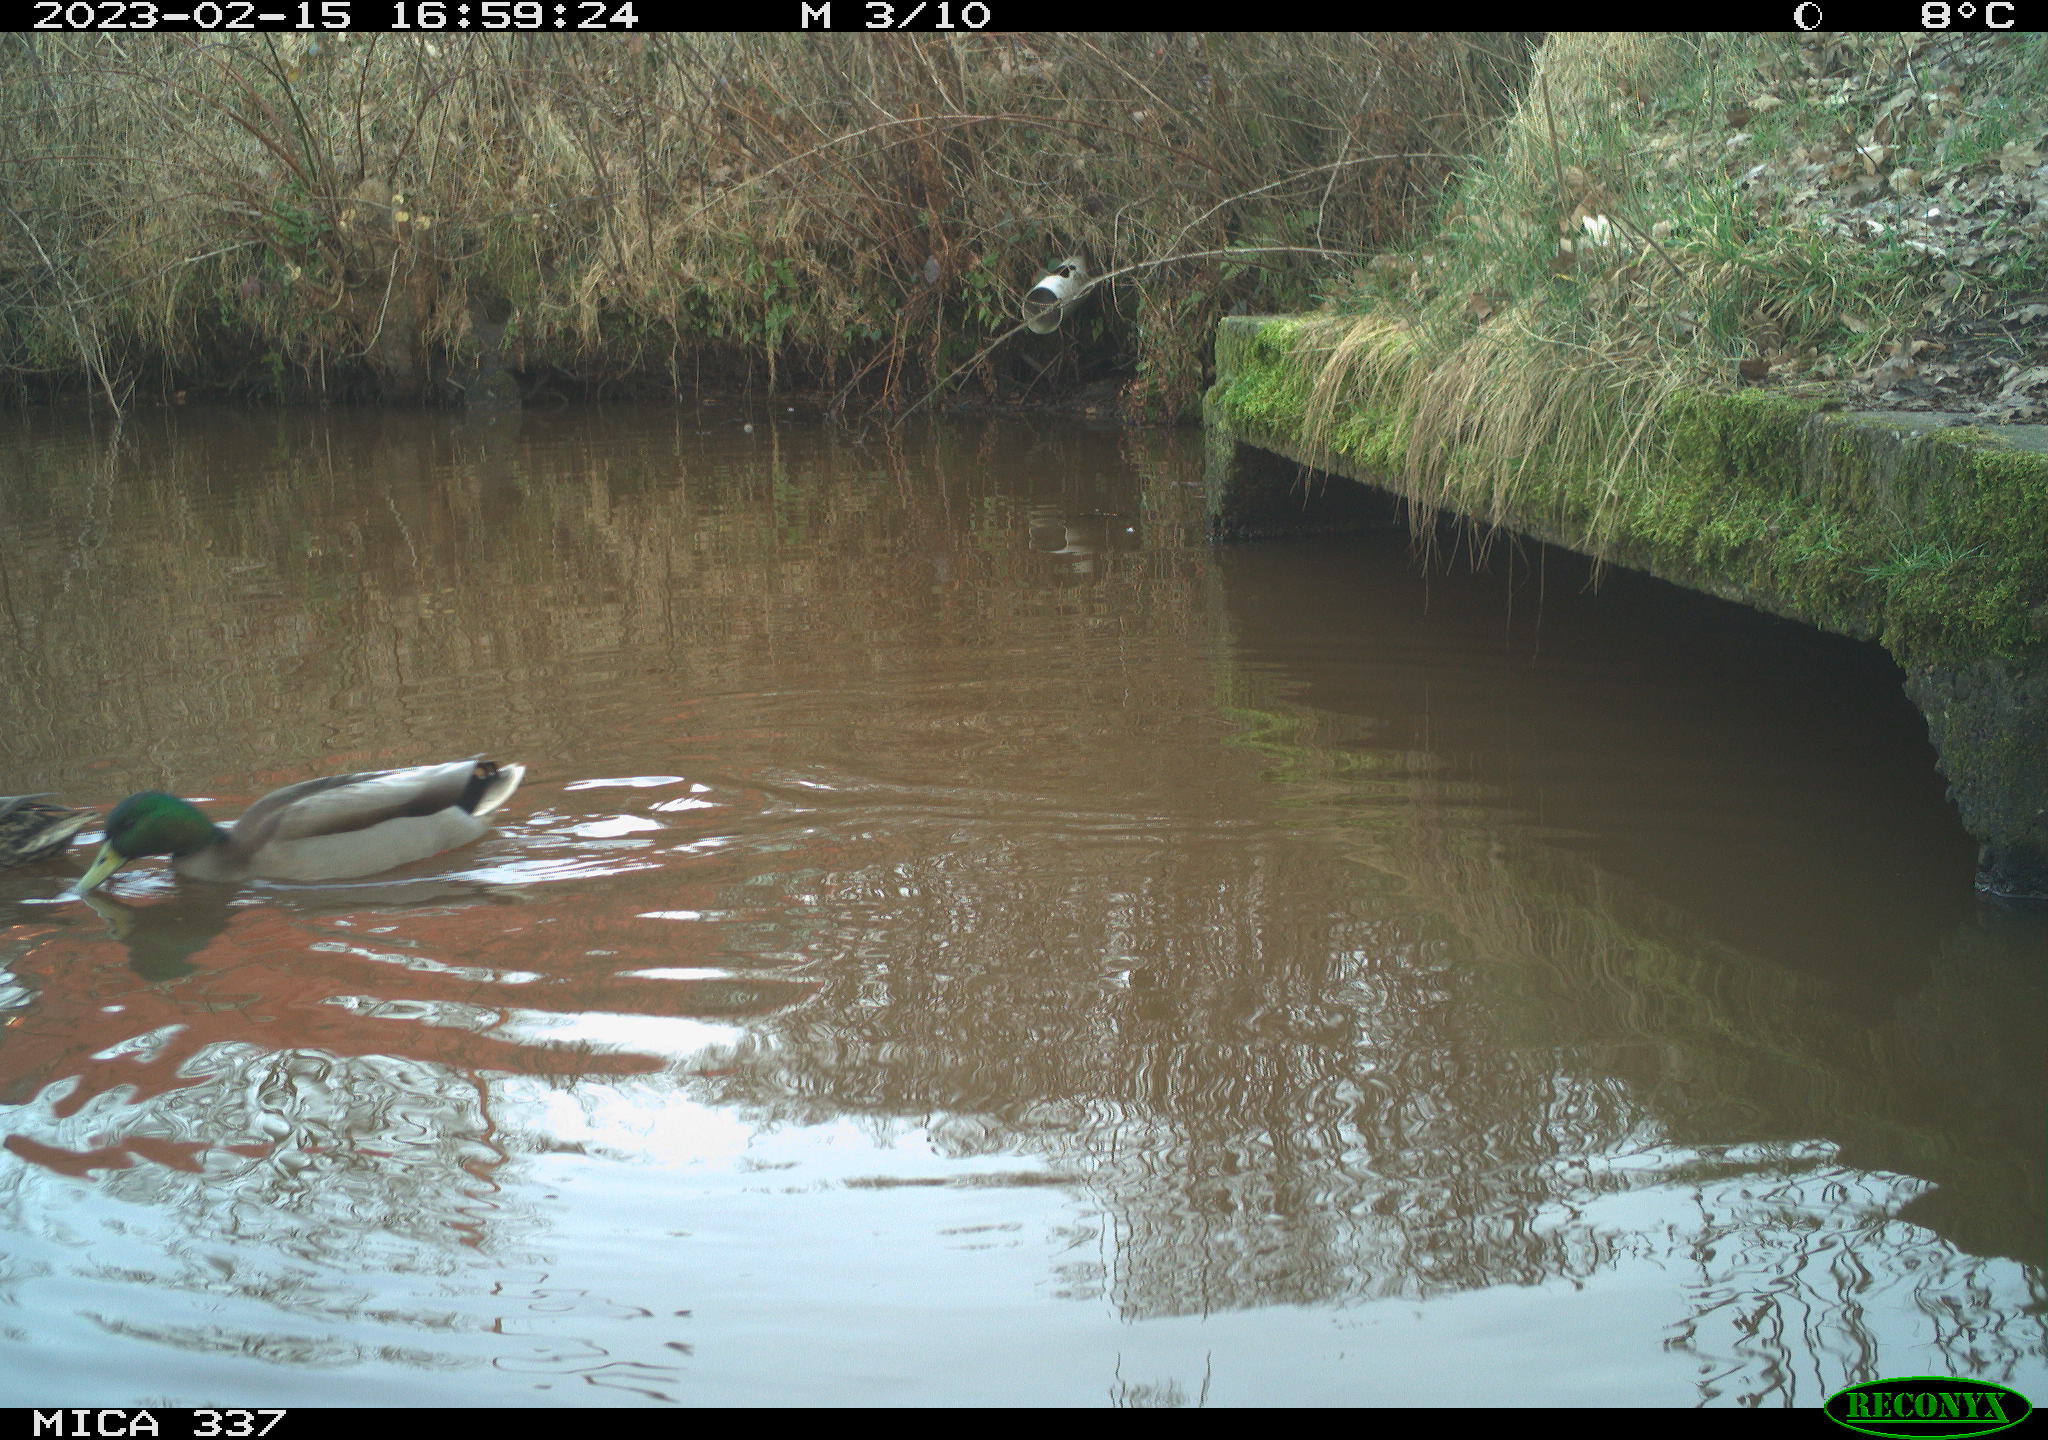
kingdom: Animalia
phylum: Chordata
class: Aves
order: Anseriformes
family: Anatidae
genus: Anas
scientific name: Anas
